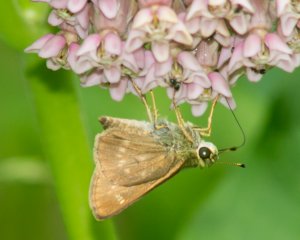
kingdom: Animalia
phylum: Arthropoda
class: Insecta
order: Lepidoptera
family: Hesperiidae
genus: Vernia
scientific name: Vernia verna
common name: Little Glassywing
